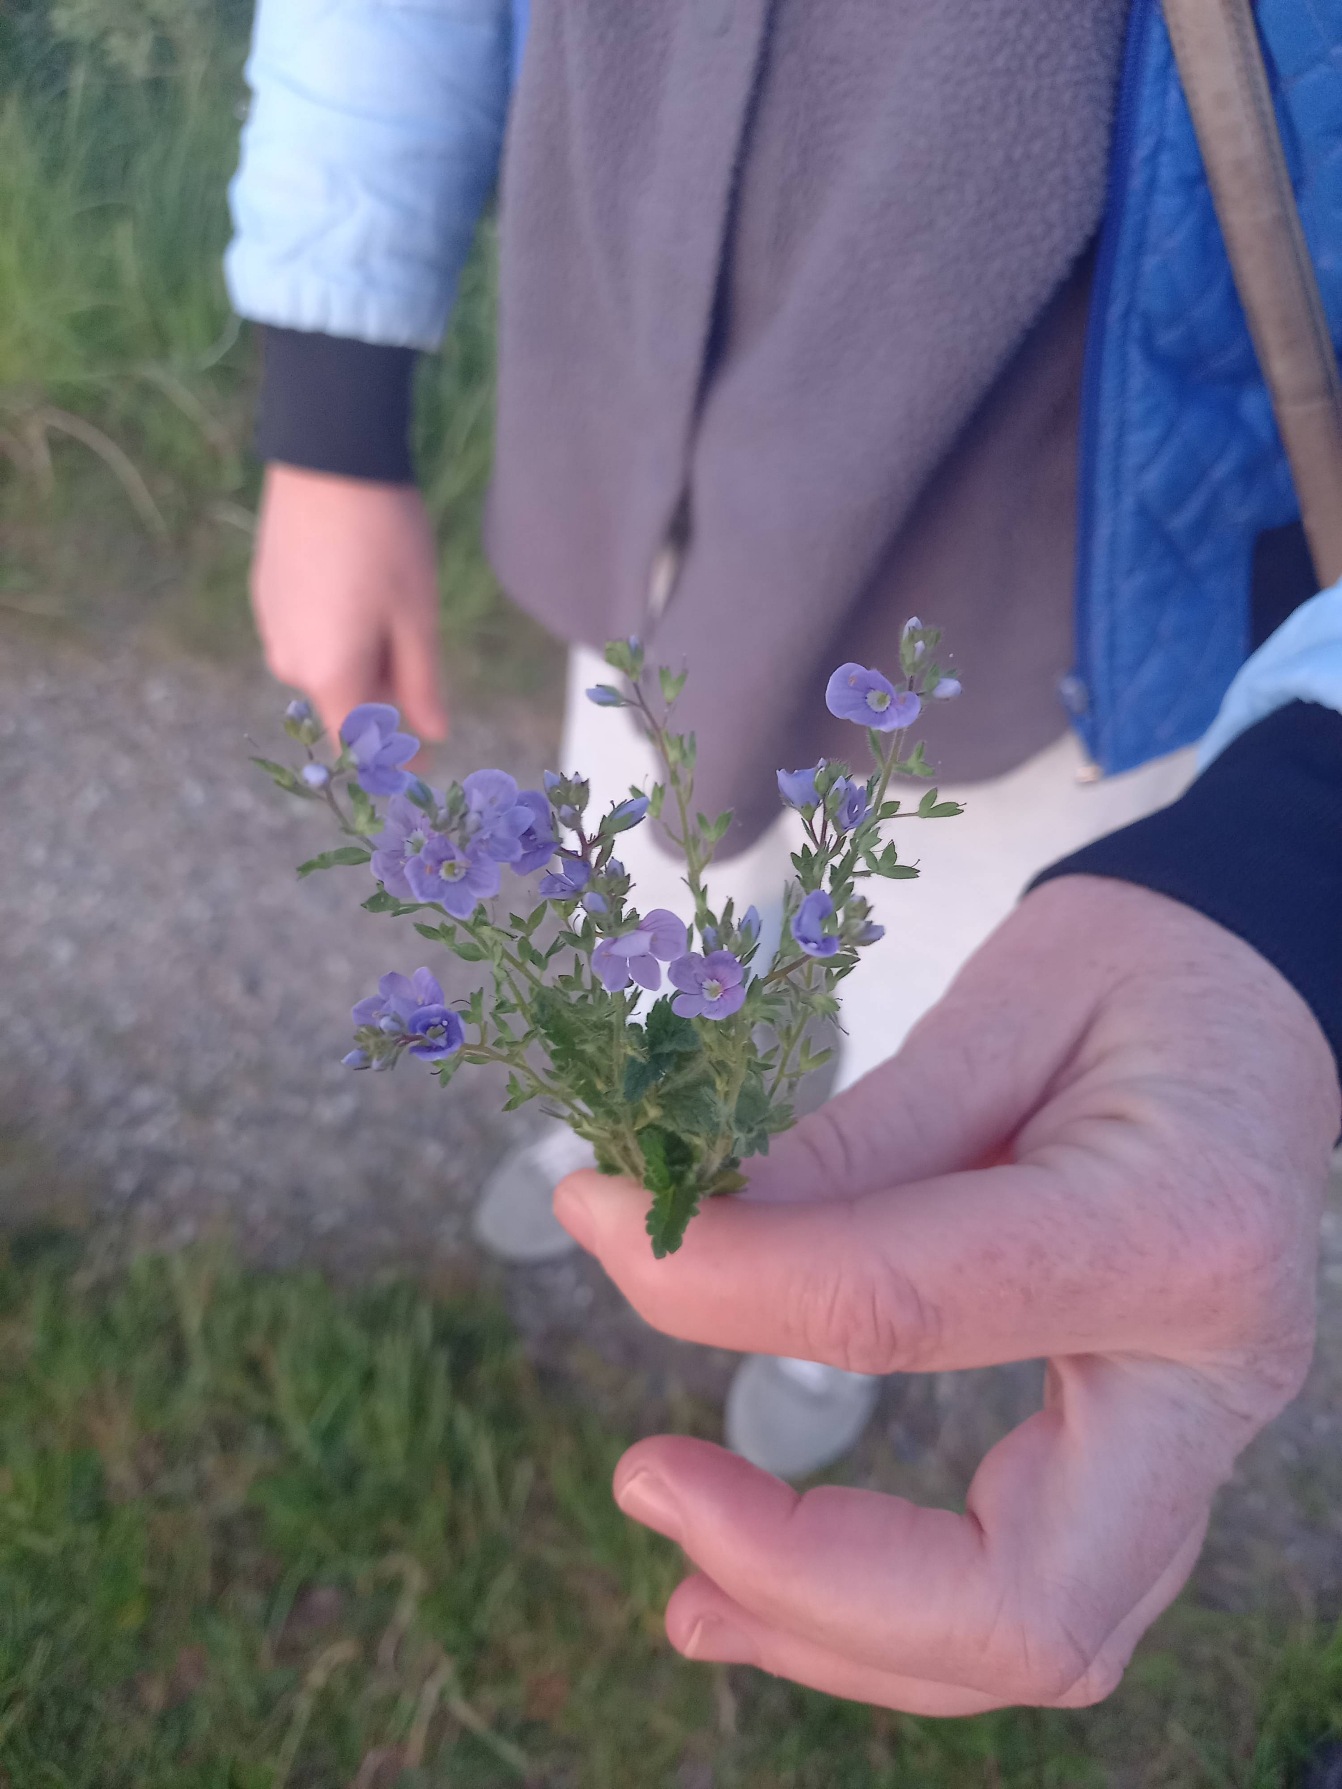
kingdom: Plantae
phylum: Tracheophyta
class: Magnoliopsida
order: Lamiales
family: Plantaginaceae
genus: Veronica
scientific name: Veronica chamaedrys
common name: Tveskægget ærenpris
